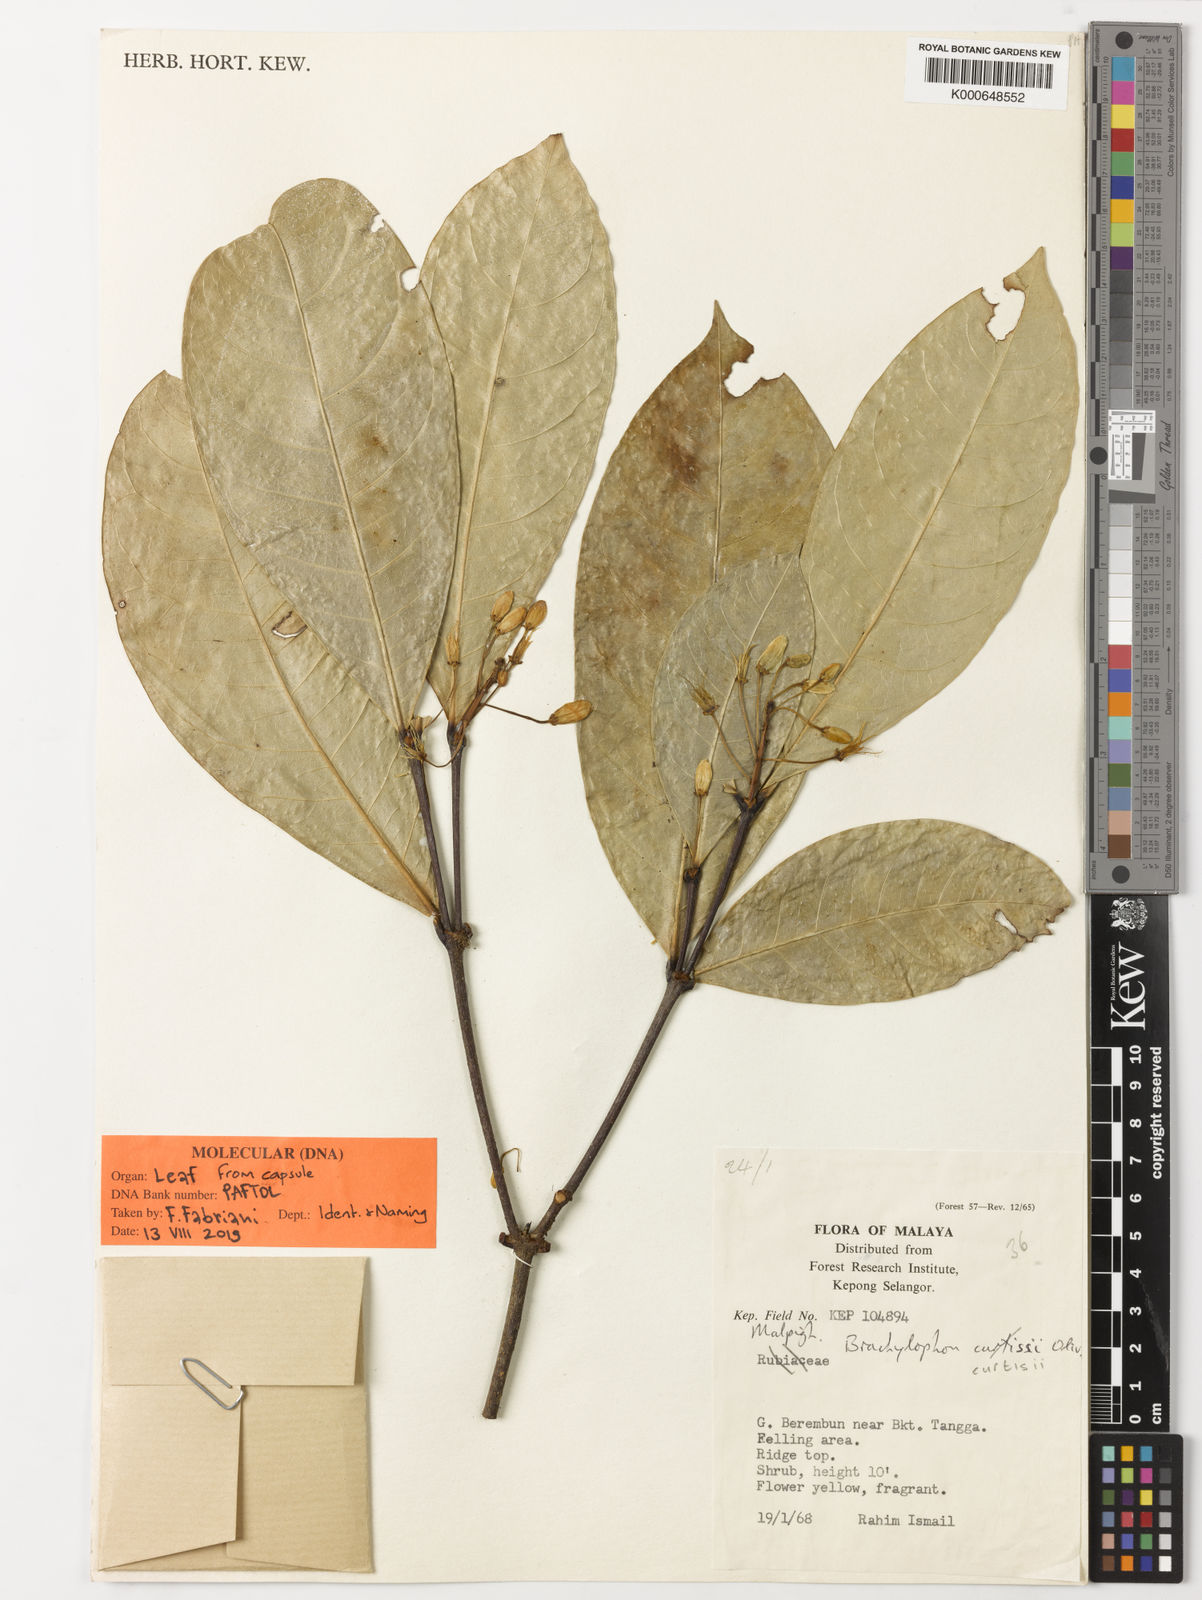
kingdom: Plantae
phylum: Tracheophyta
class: Magnoliopsida
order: Malpighiales
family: Malpighiaceae
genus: Brachylophon
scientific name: Brachylophon curtisii
